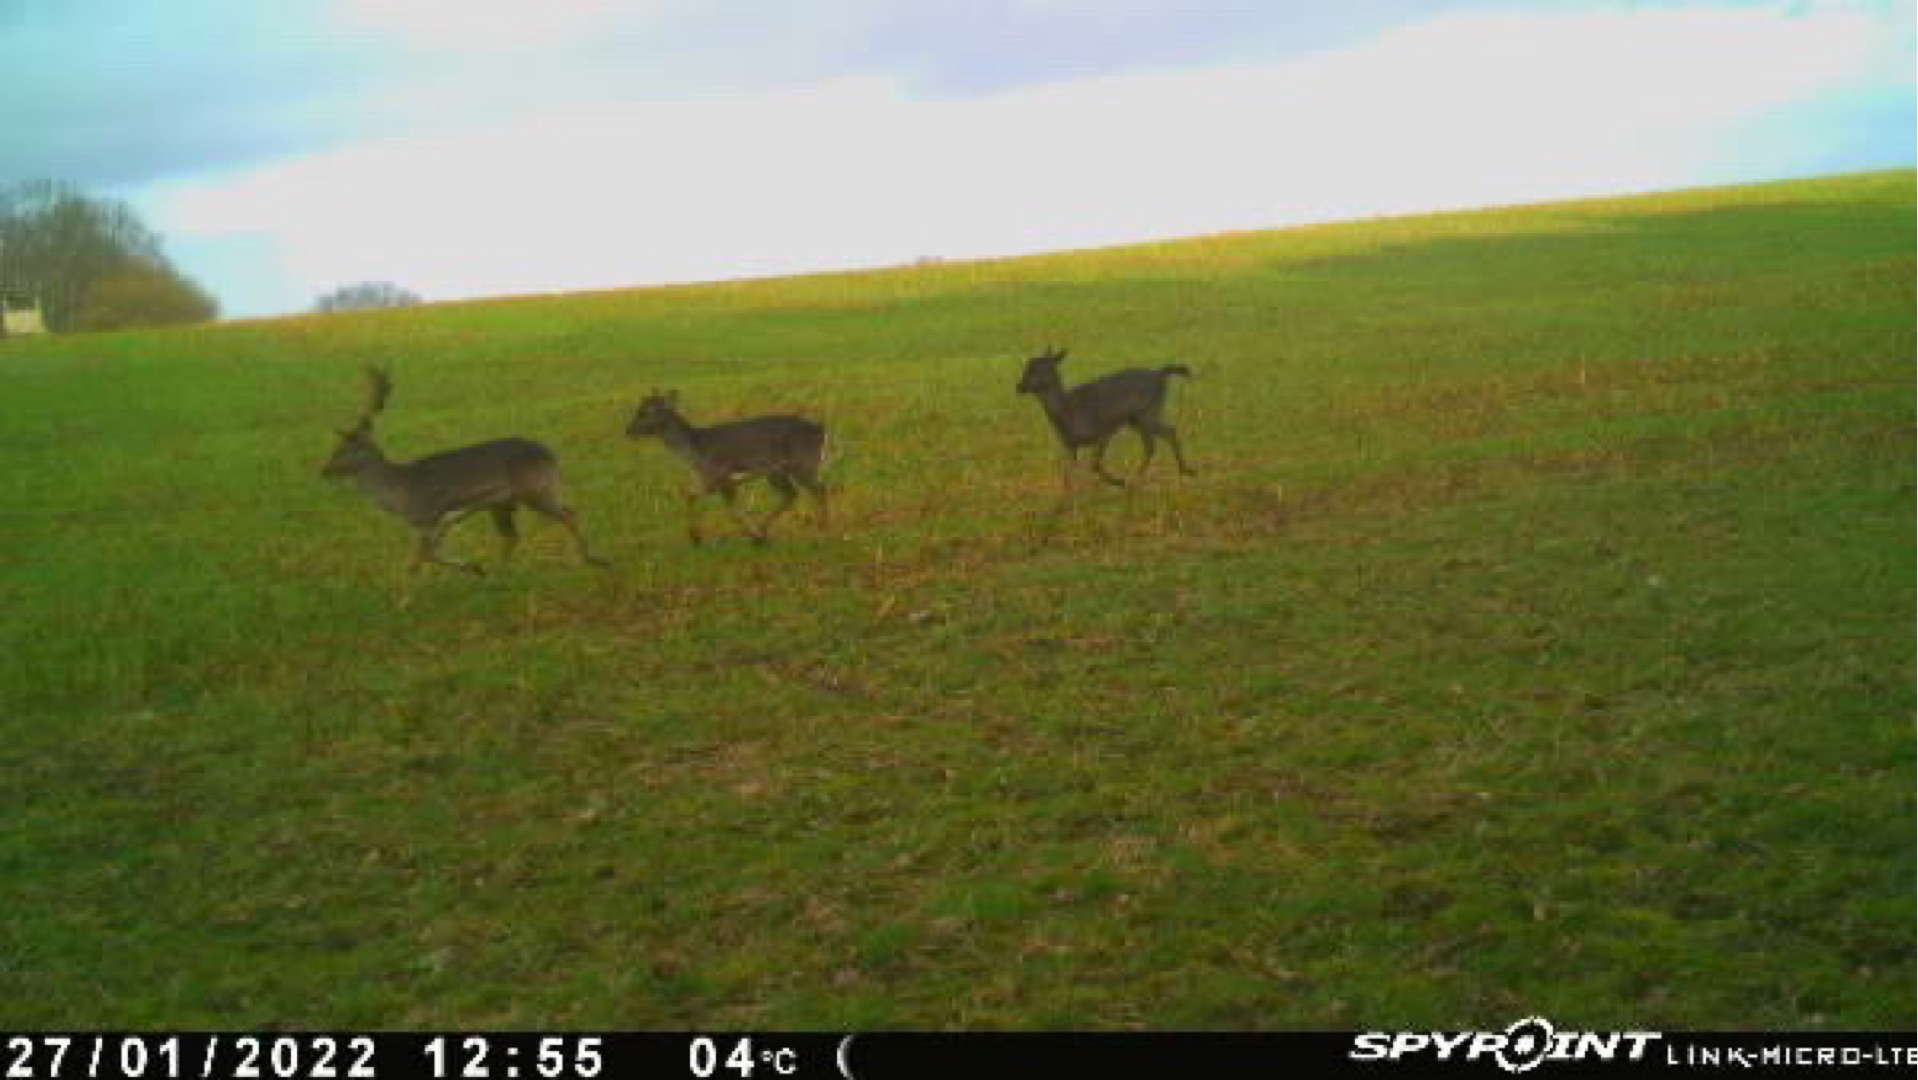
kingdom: Animalia
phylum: Chordata
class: Mammalia
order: Artiodactyla
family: Cervidae
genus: Dama
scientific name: Dama dama
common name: Dådyr
